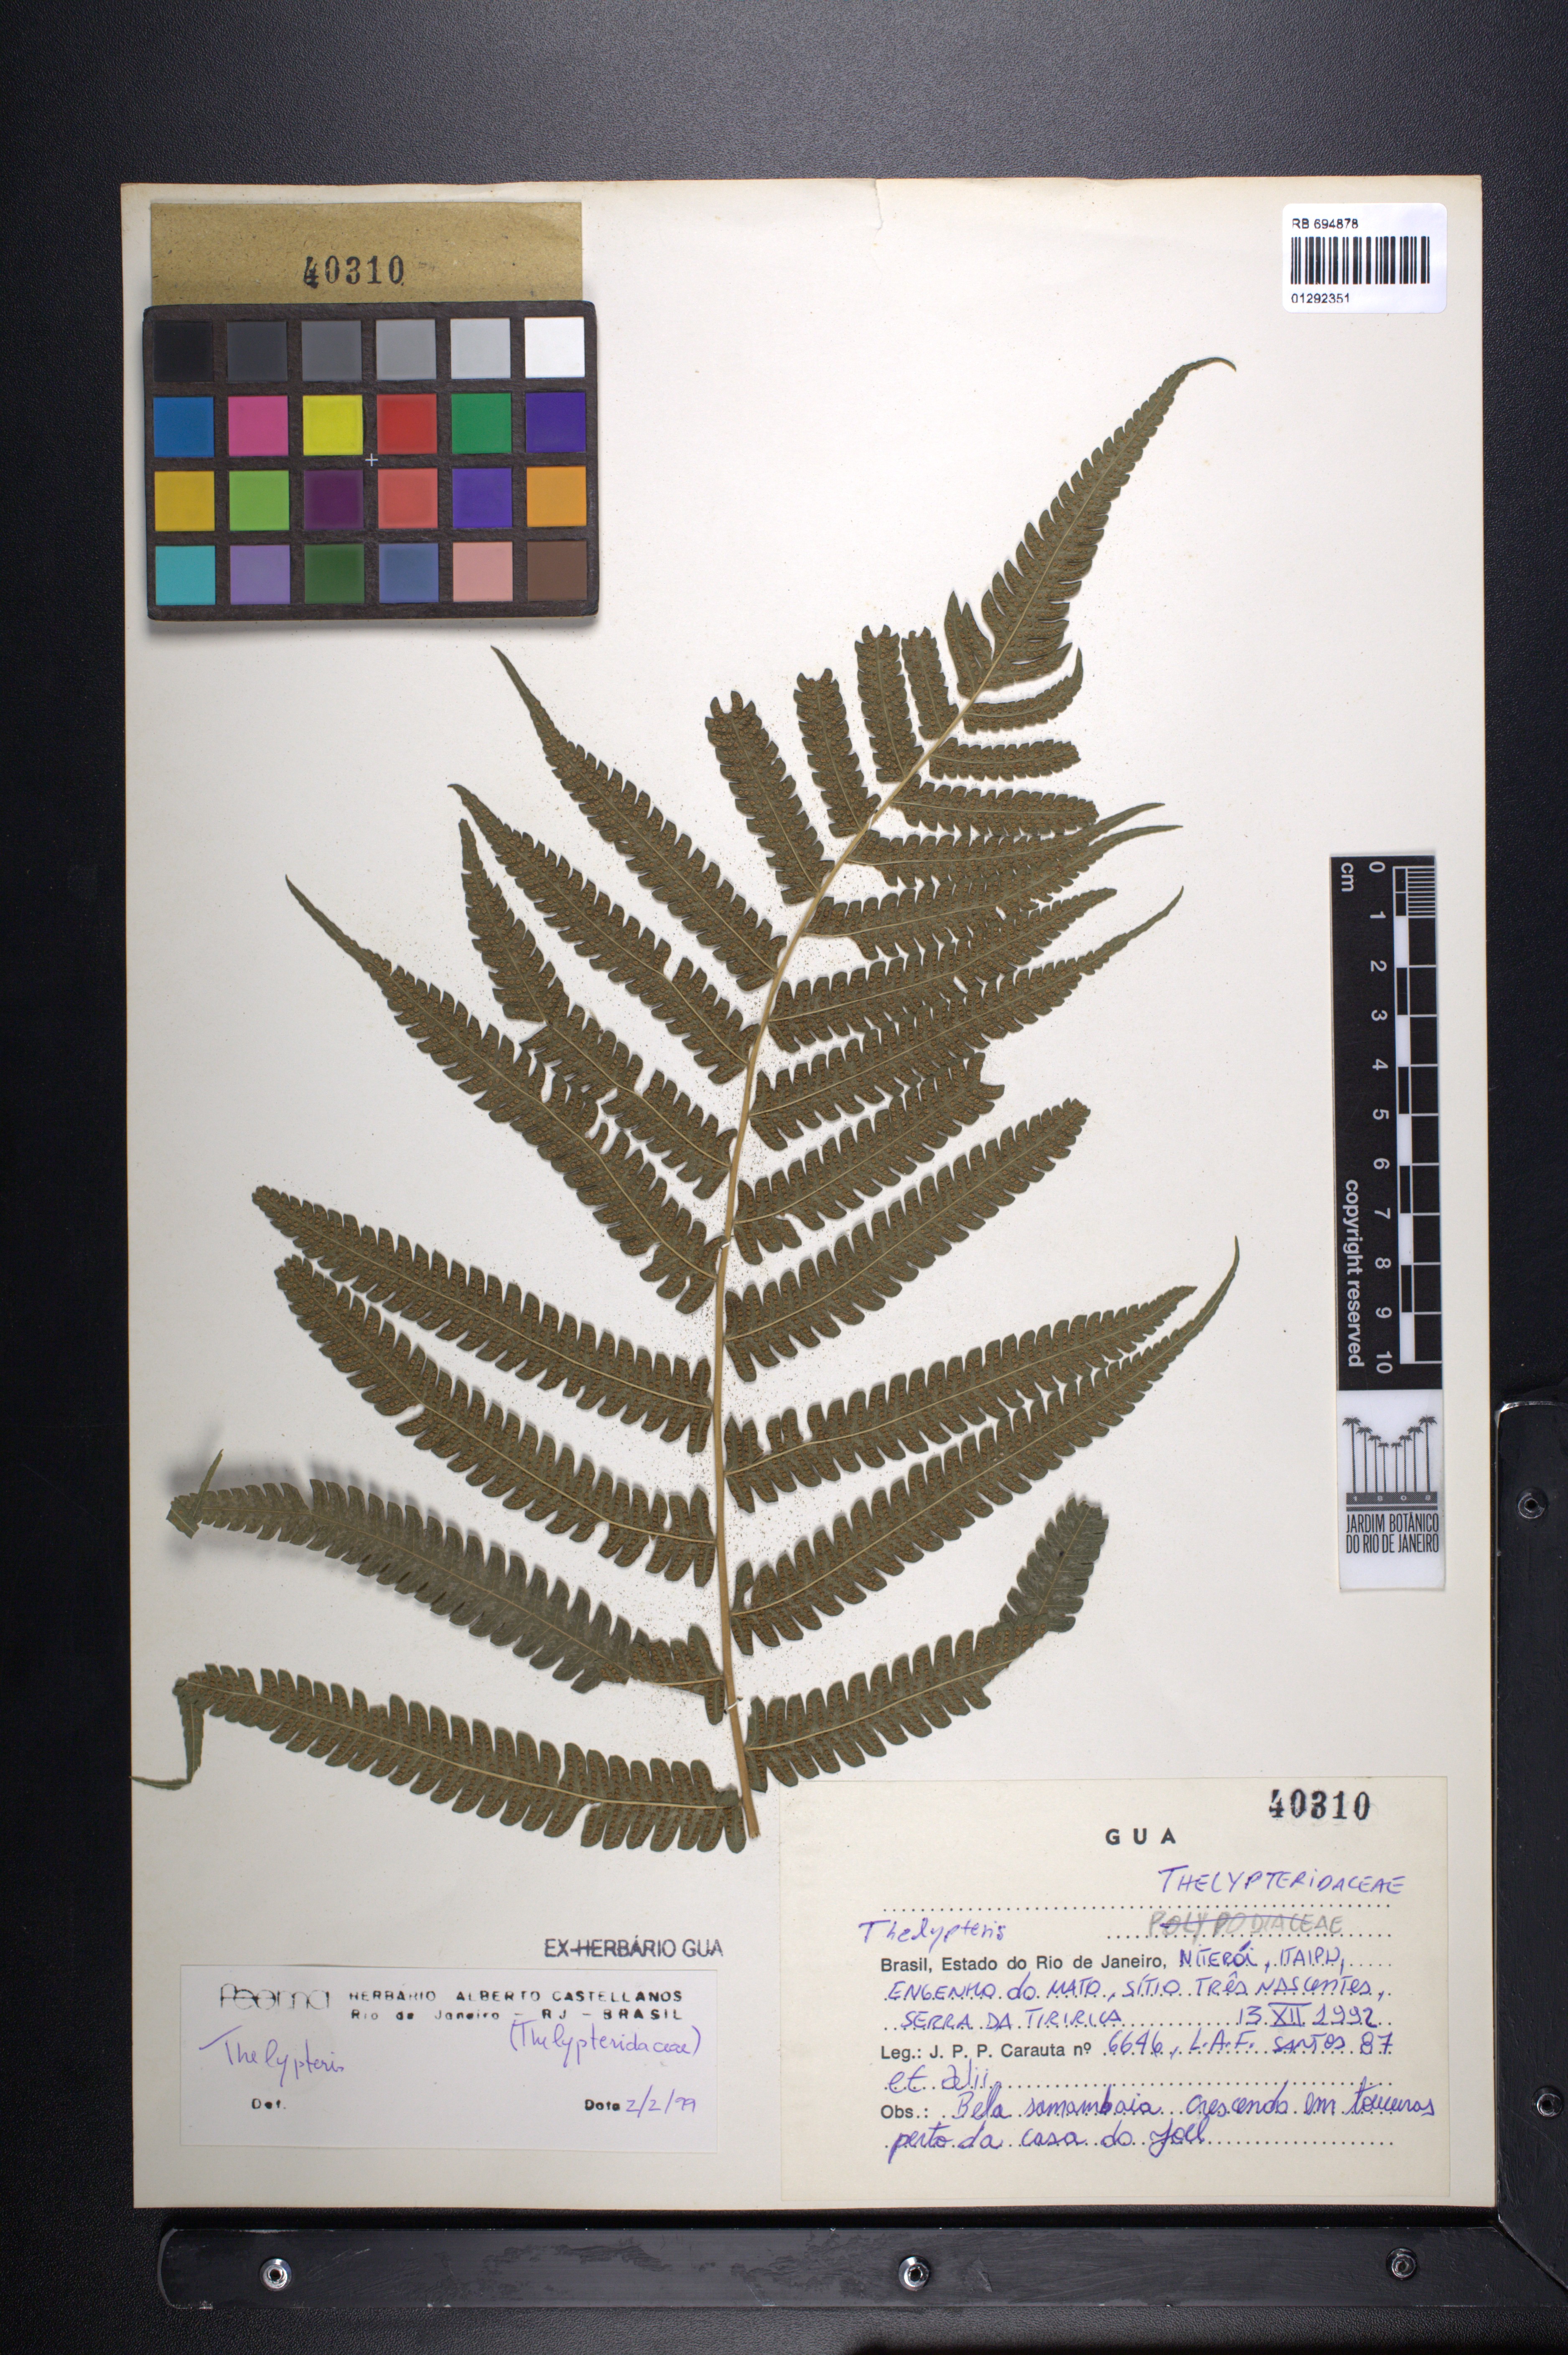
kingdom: Plantae
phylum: Tracheophyta
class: Polypodiopsida
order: Polypodiales
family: Thelypteridaceae
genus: Thelypteris
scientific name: Thelypteris
